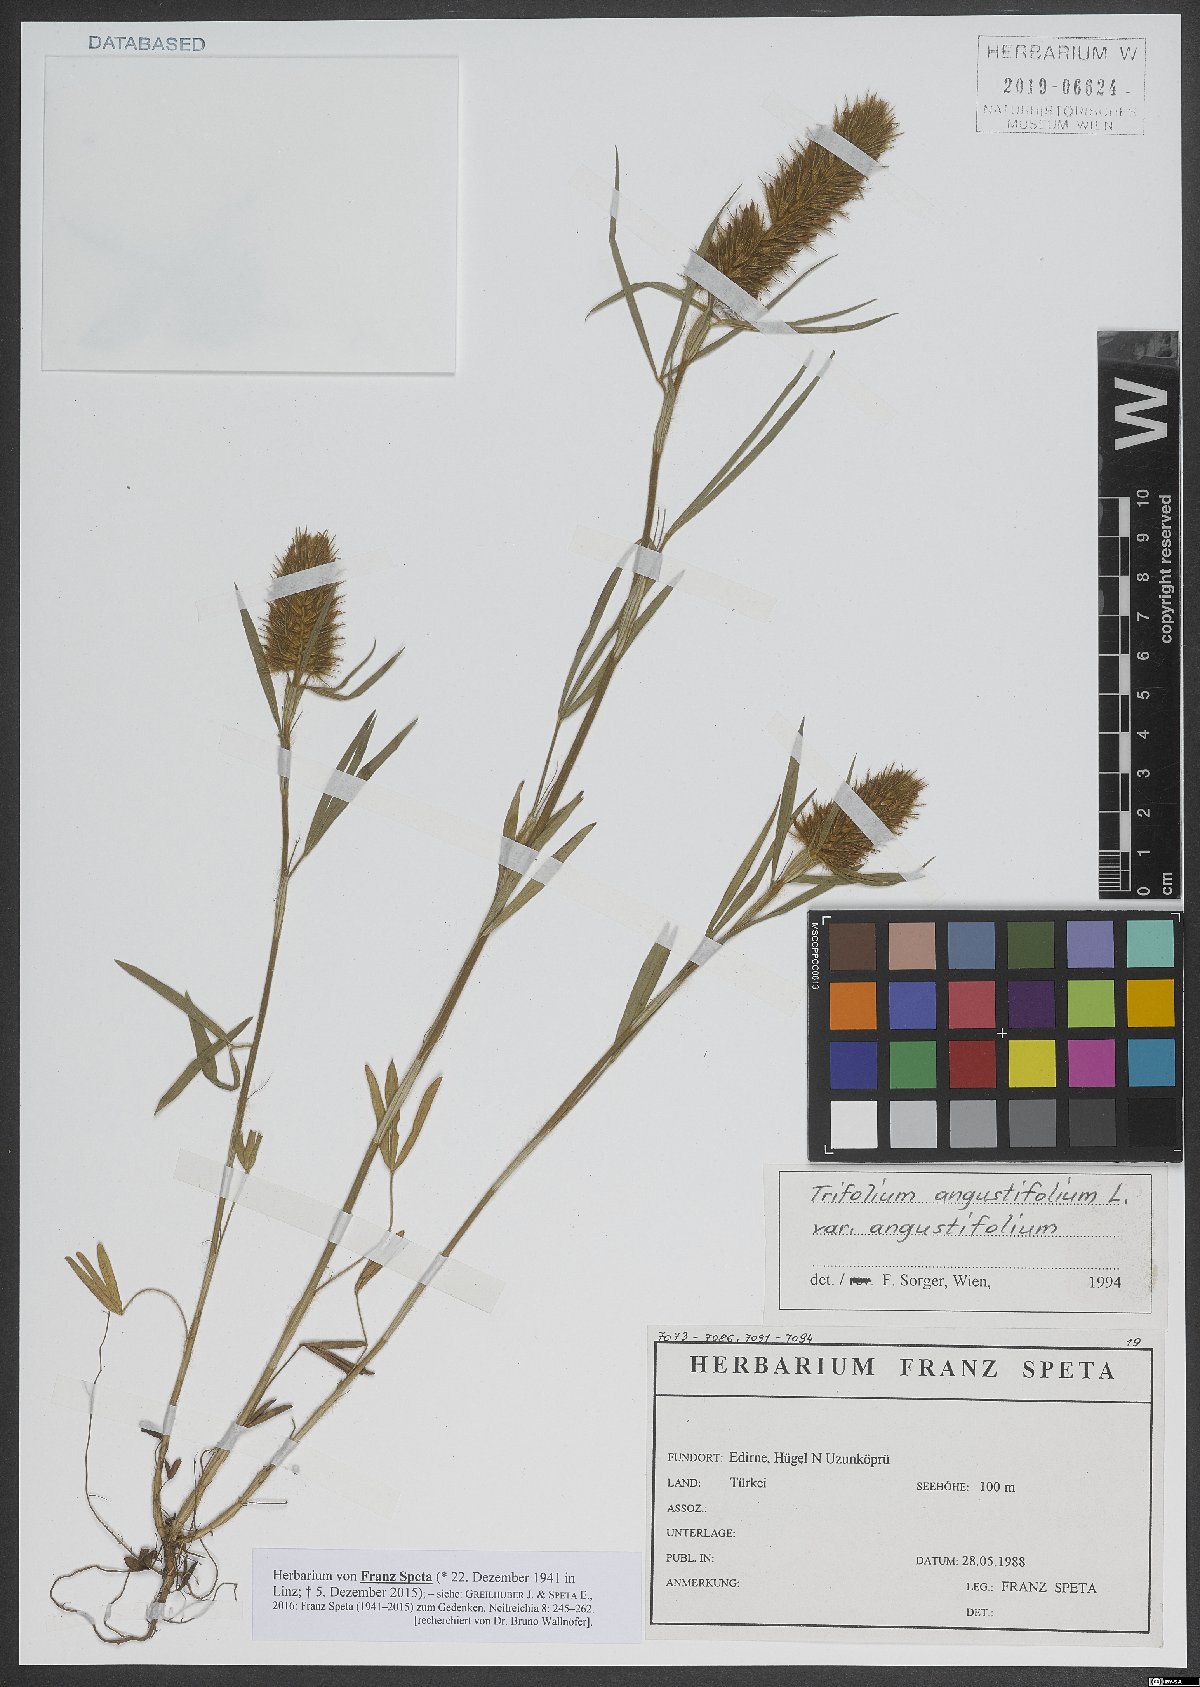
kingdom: Plantae
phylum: Tracheophyta
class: Magnoliopsida
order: Fabales
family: Fabaceae
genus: Trifolium
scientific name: Trifolium angustifolium
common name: Narrow clover
